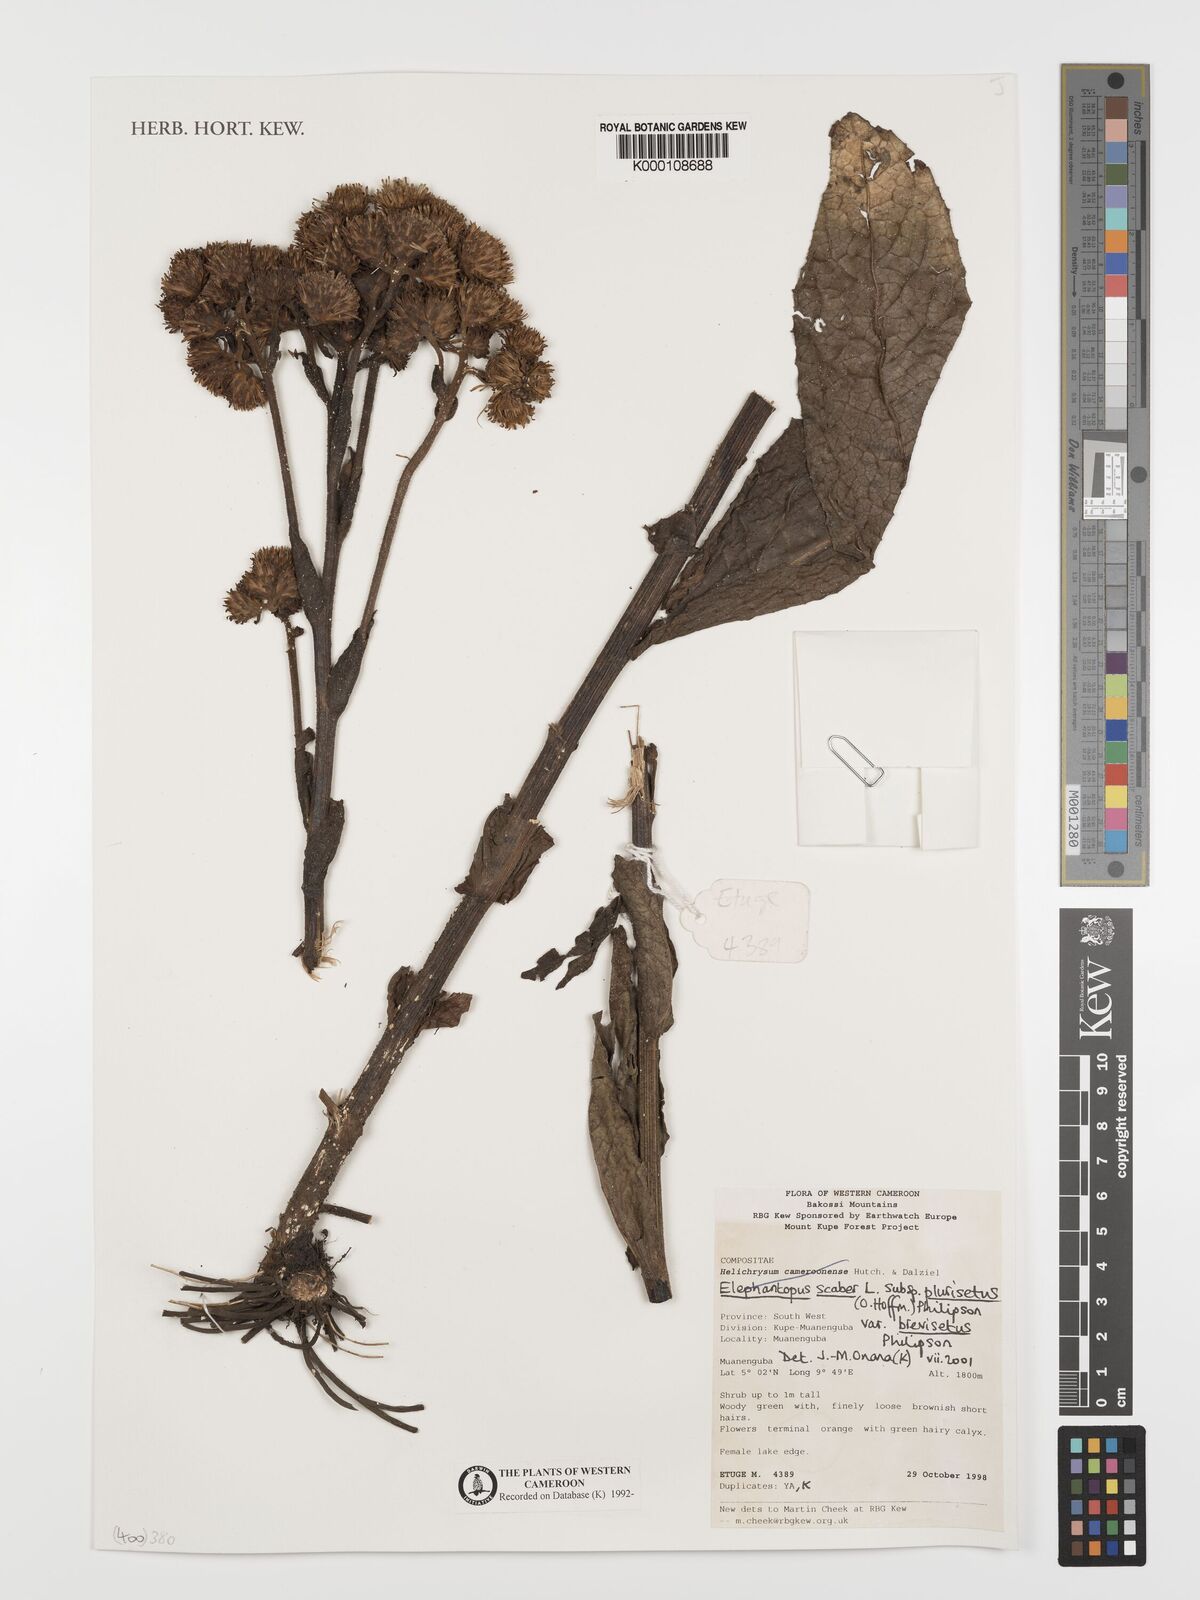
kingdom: Plantae
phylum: Tracheophyta
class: Magnoliopsida
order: Asterales
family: Asteraceae
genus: Elephantopus
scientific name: Elephantopus scaber
